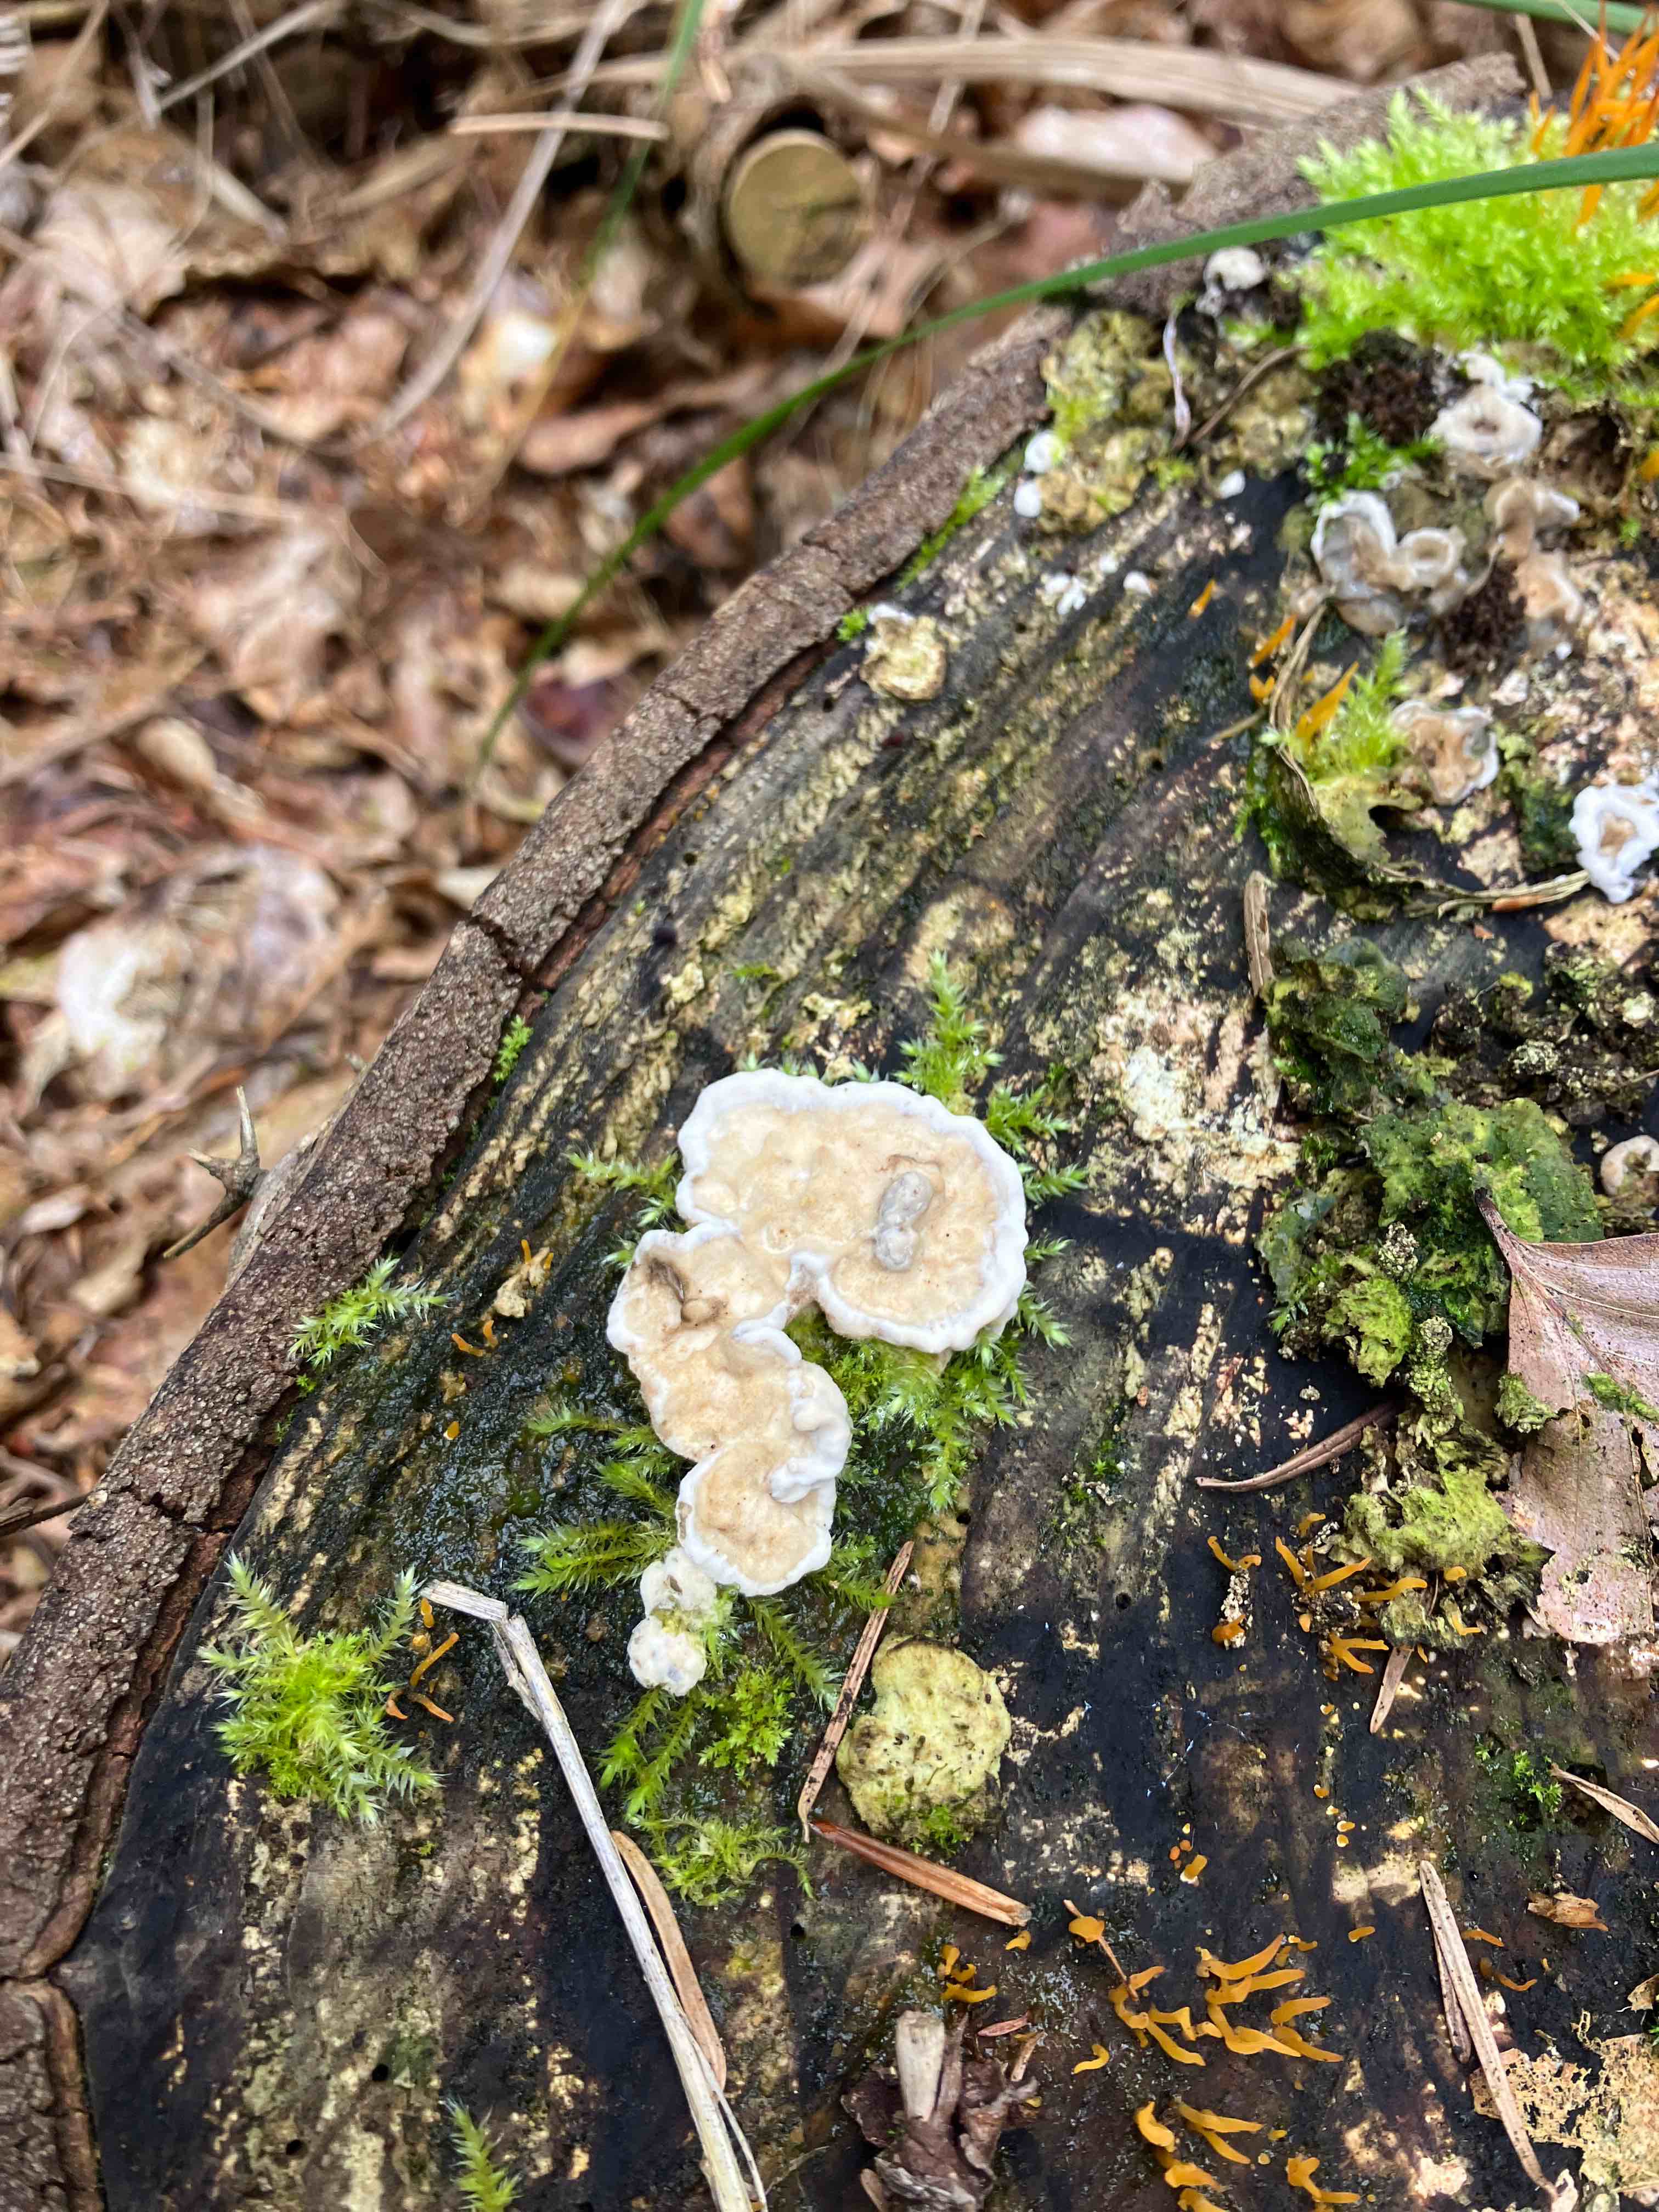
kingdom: Fungi
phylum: Basidiomycota
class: Agaricomycetes
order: Corticiales
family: Corticiaceae
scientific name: Corticiaceae
